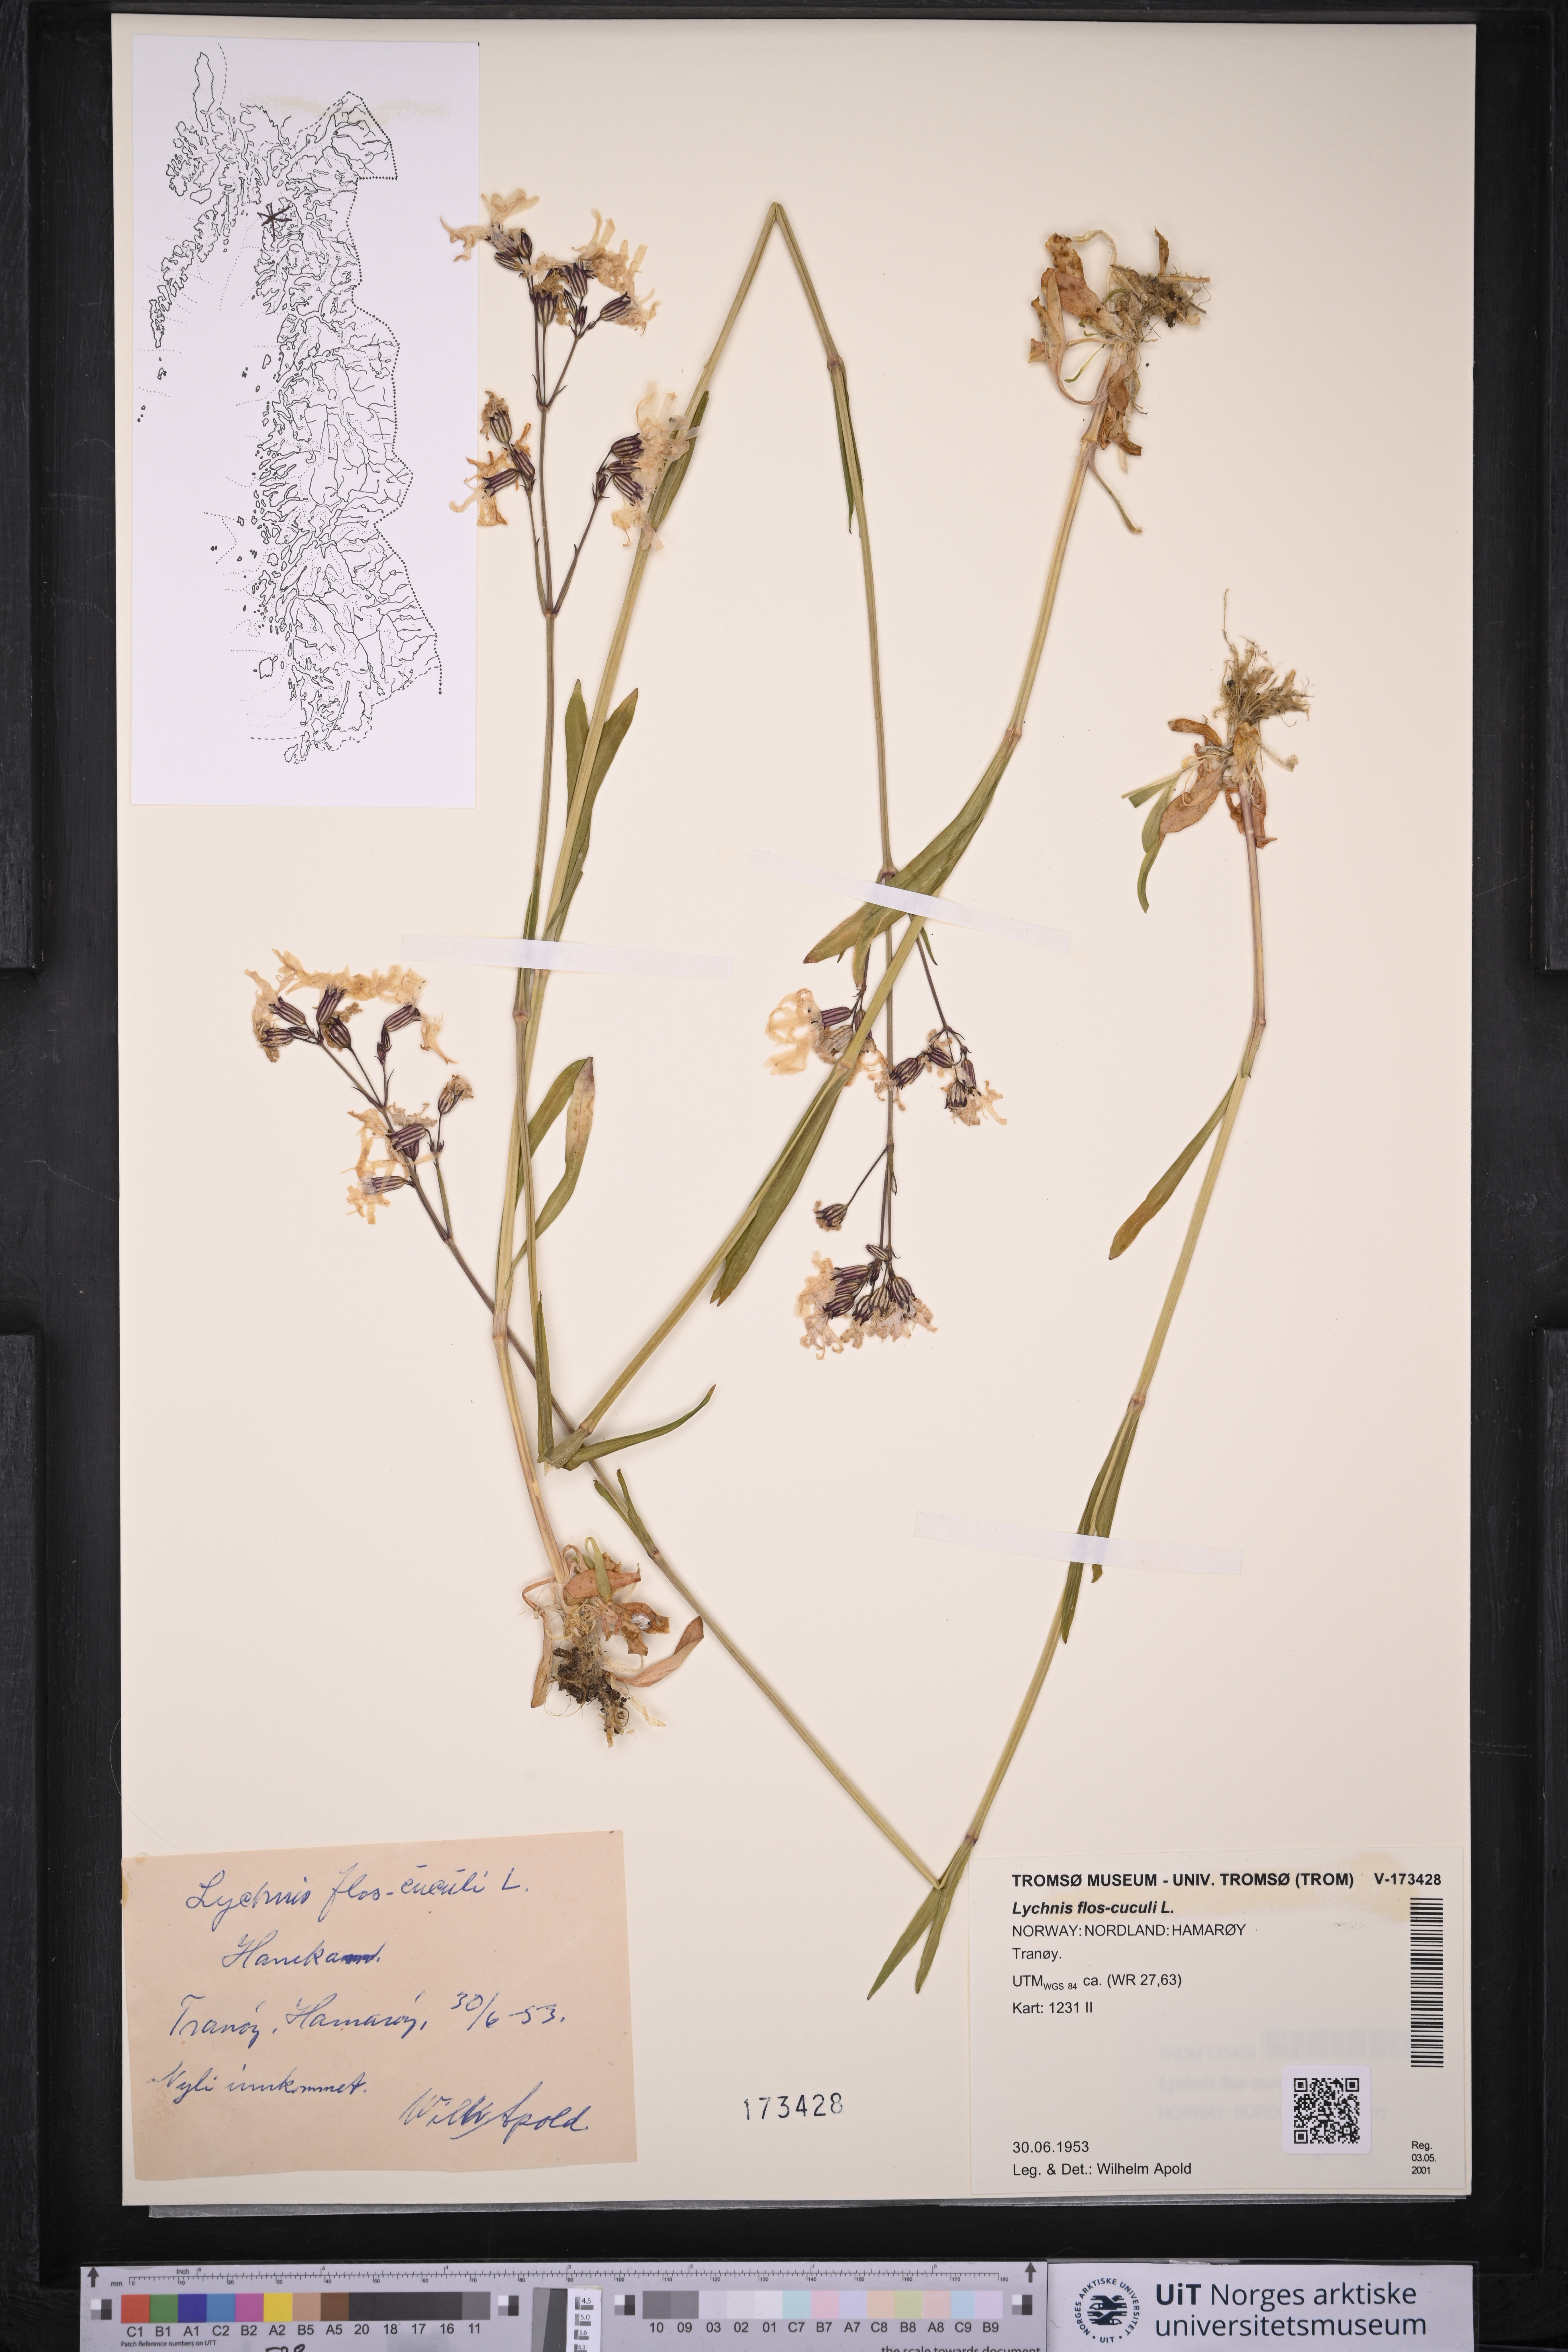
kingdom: Plantae
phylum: Tracheophyta
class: Magnoliopsida
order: Caryophyllales
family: Caryophyllaceae
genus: Silene
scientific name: Silene flos-cuculi
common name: Ragged-robin
